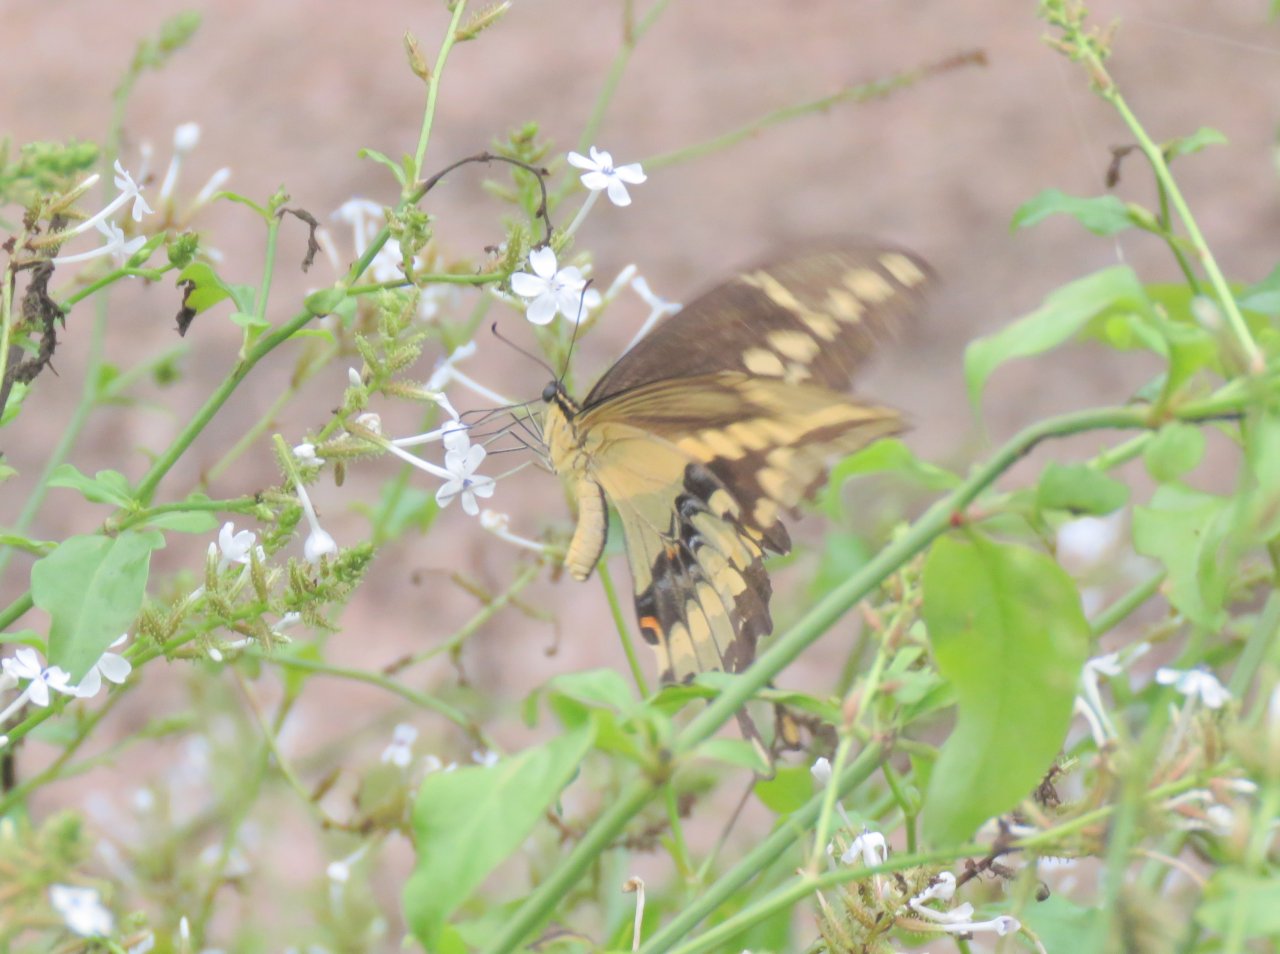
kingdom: Animalia
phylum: Arthropoda
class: Insecta
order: Lepidoptera
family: Papilionidae
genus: Papilio
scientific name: Papilio rumiko
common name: Western Giant Swallowtail
